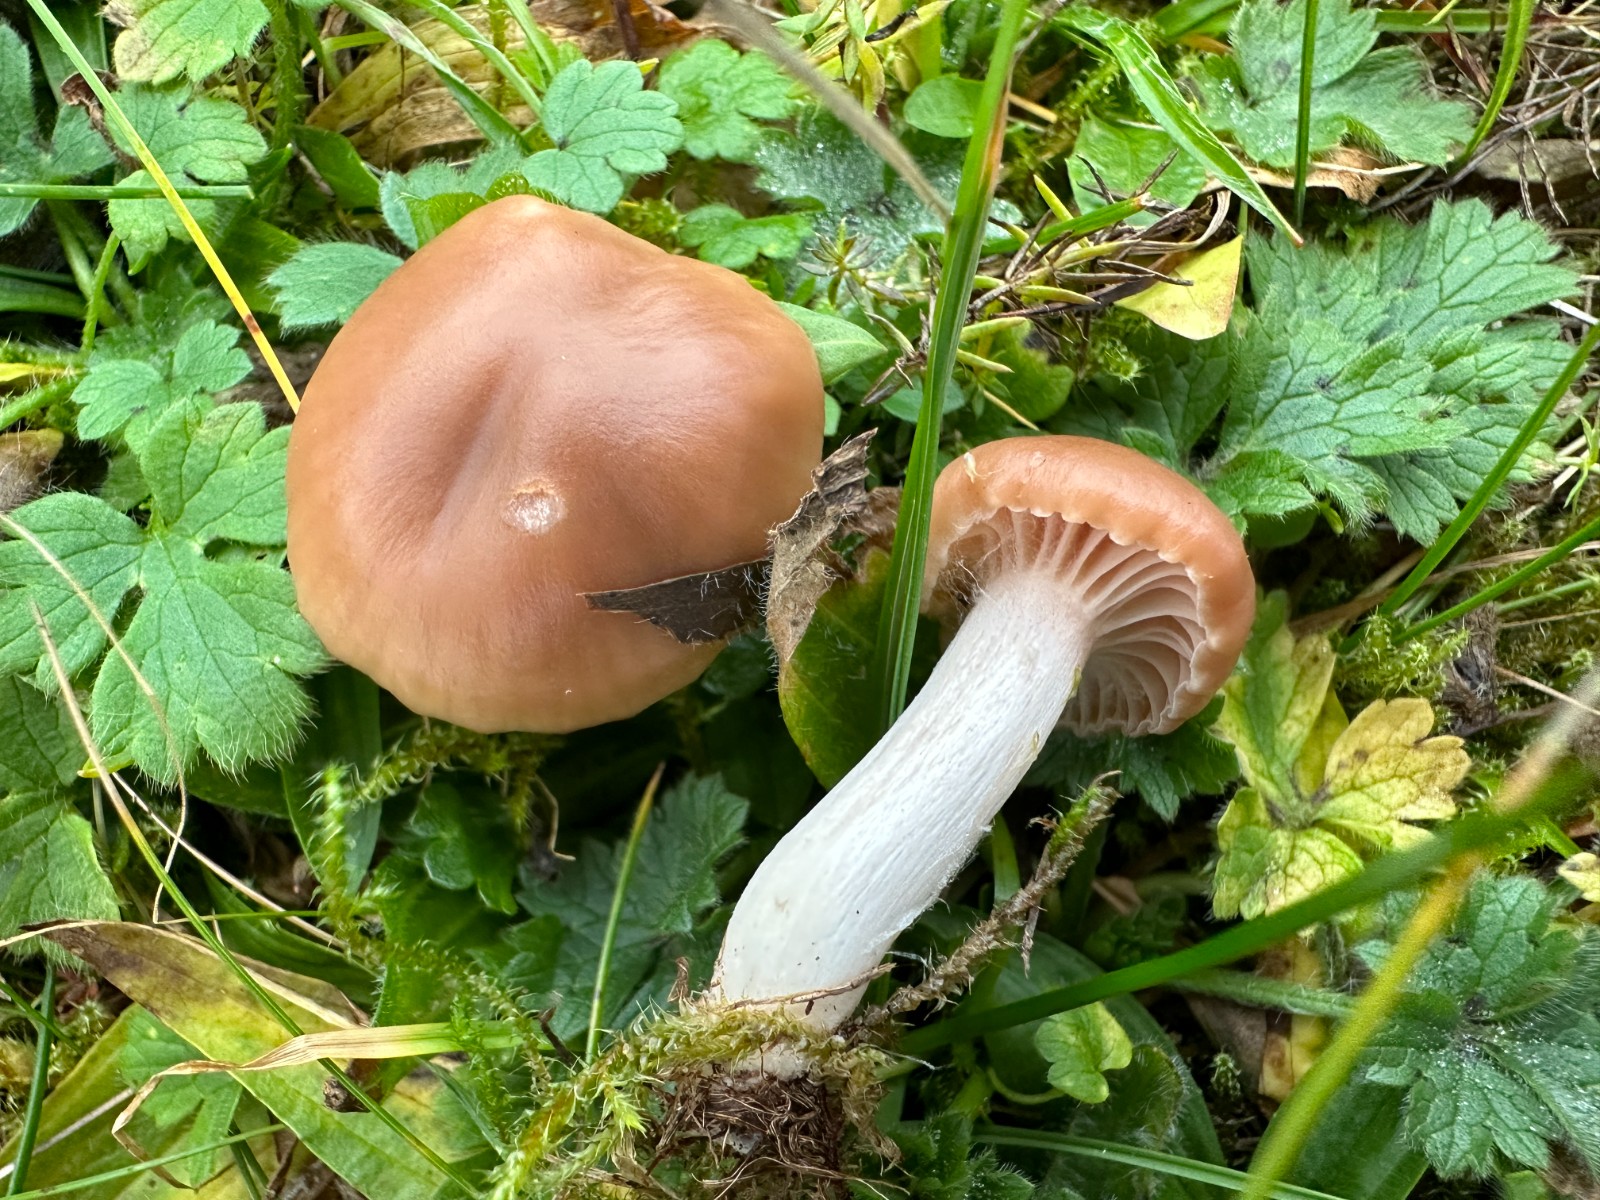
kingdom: Fungi
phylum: Basidiomycota
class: Agaricomycetes
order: Agaricales
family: Hygrophoraceae
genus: Cuphophyllus
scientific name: Cuphophyllus colemannianus
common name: rødbrun vokshat
